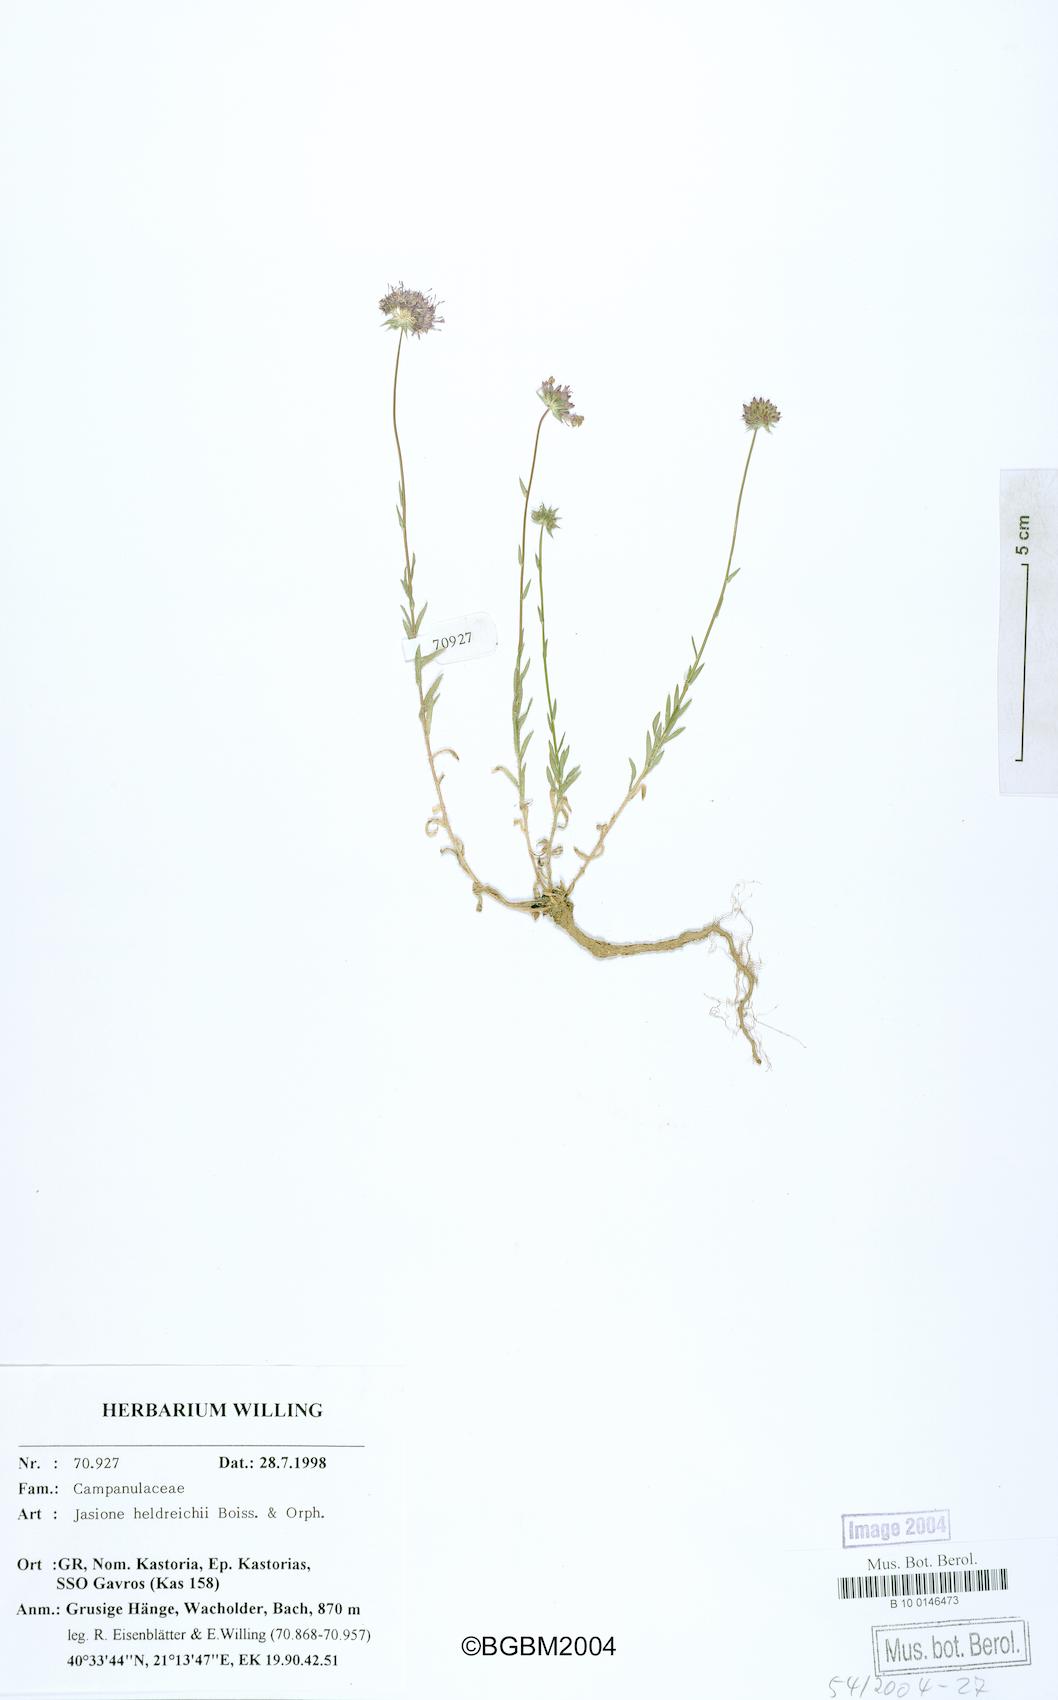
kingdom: Plantae
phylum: Tracheophyta
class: Magnoliopsida
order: Asterales
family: Campanulaceae
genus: Jasione
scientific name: Jasione heldreichii
